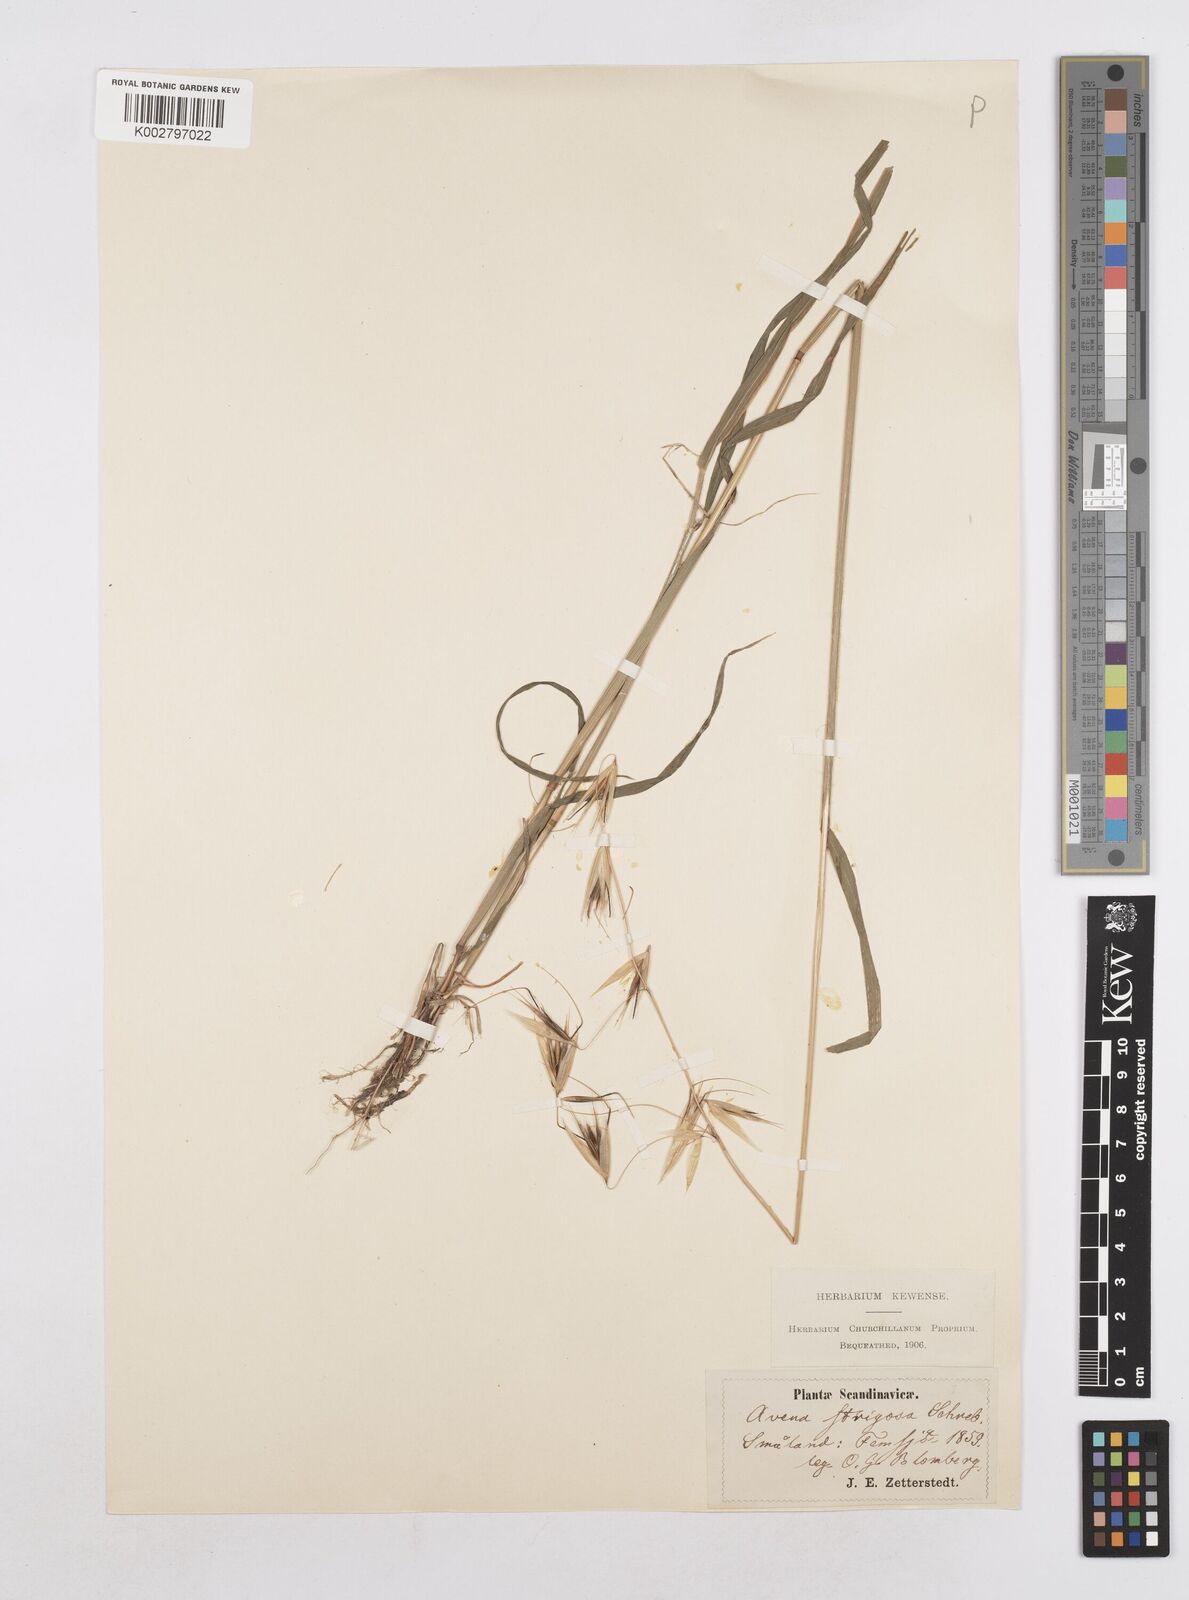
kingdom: Plantae
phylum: Tracheophyta
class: Liliopsida
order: Poales
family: Poaceae
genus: Avena
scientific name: Avena strigosa
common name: Bristle oat
